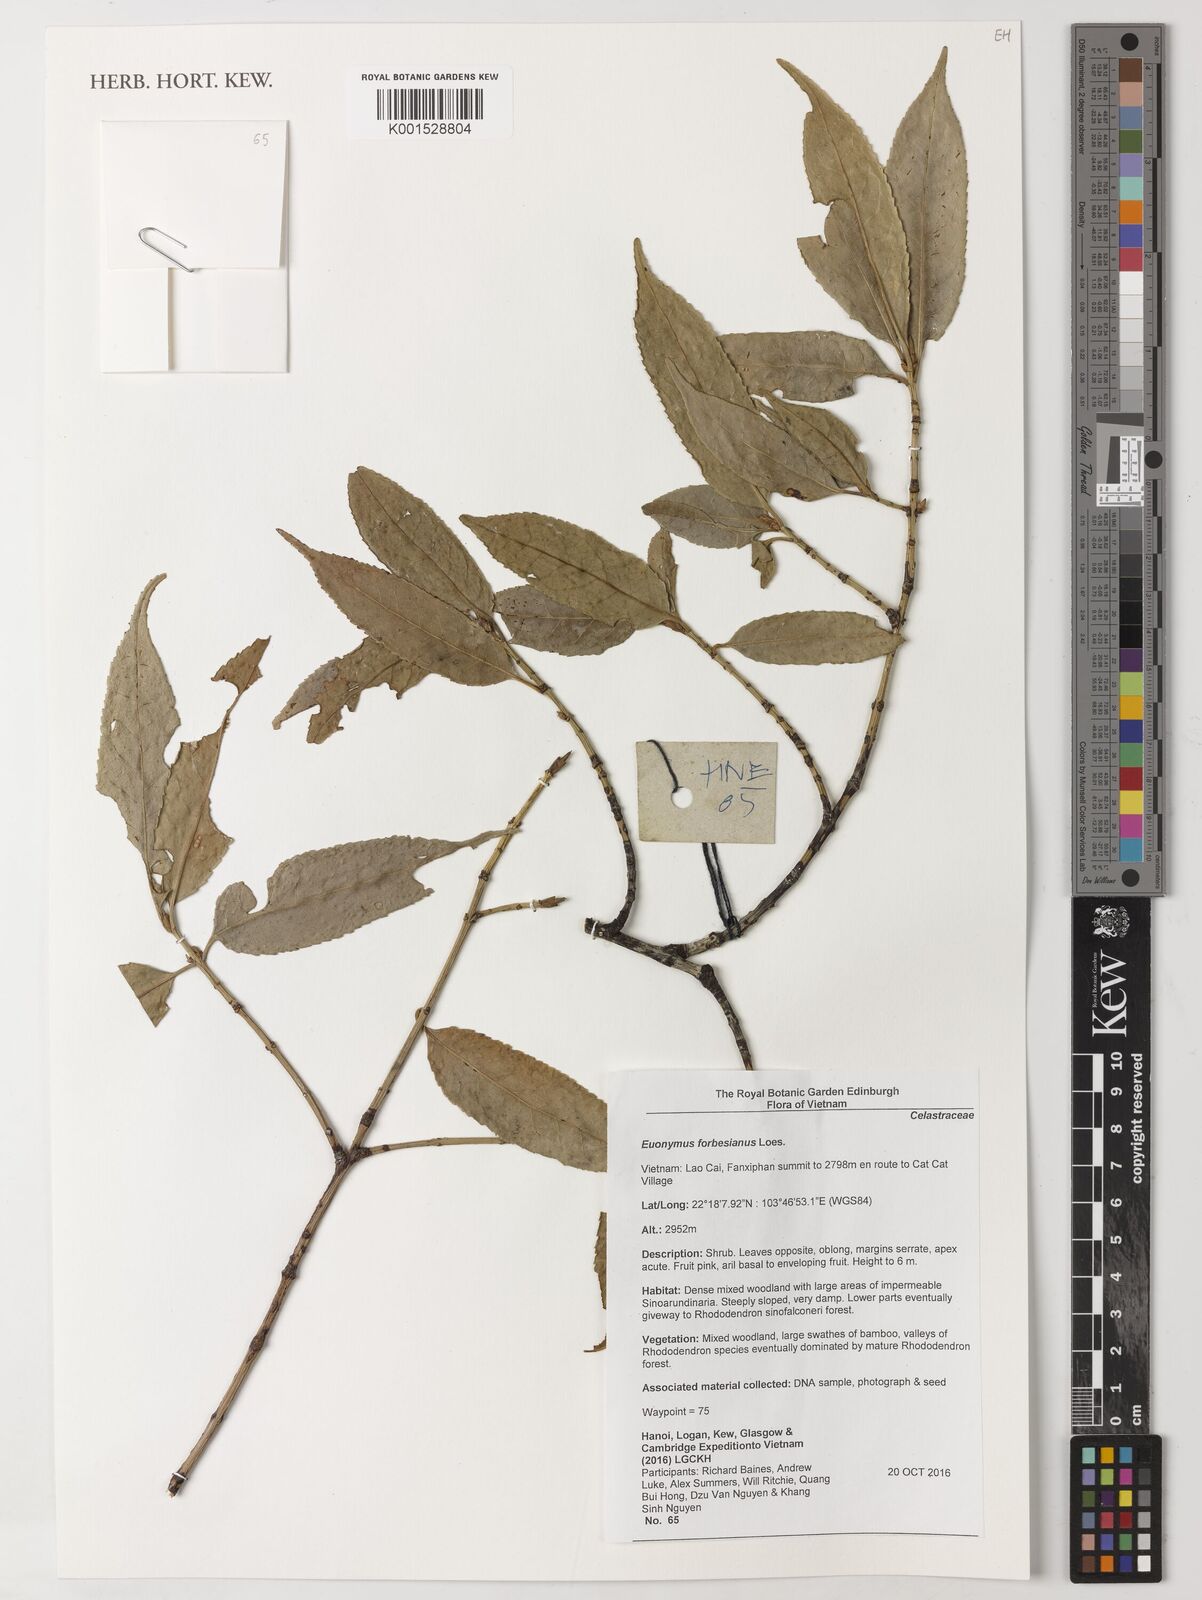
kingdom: Plantae
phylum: Tracheophyta
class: Magnoliopsida
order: Celastrales
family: Celastraceae
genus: Euonymus
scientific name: Euonymus laxiflorus
